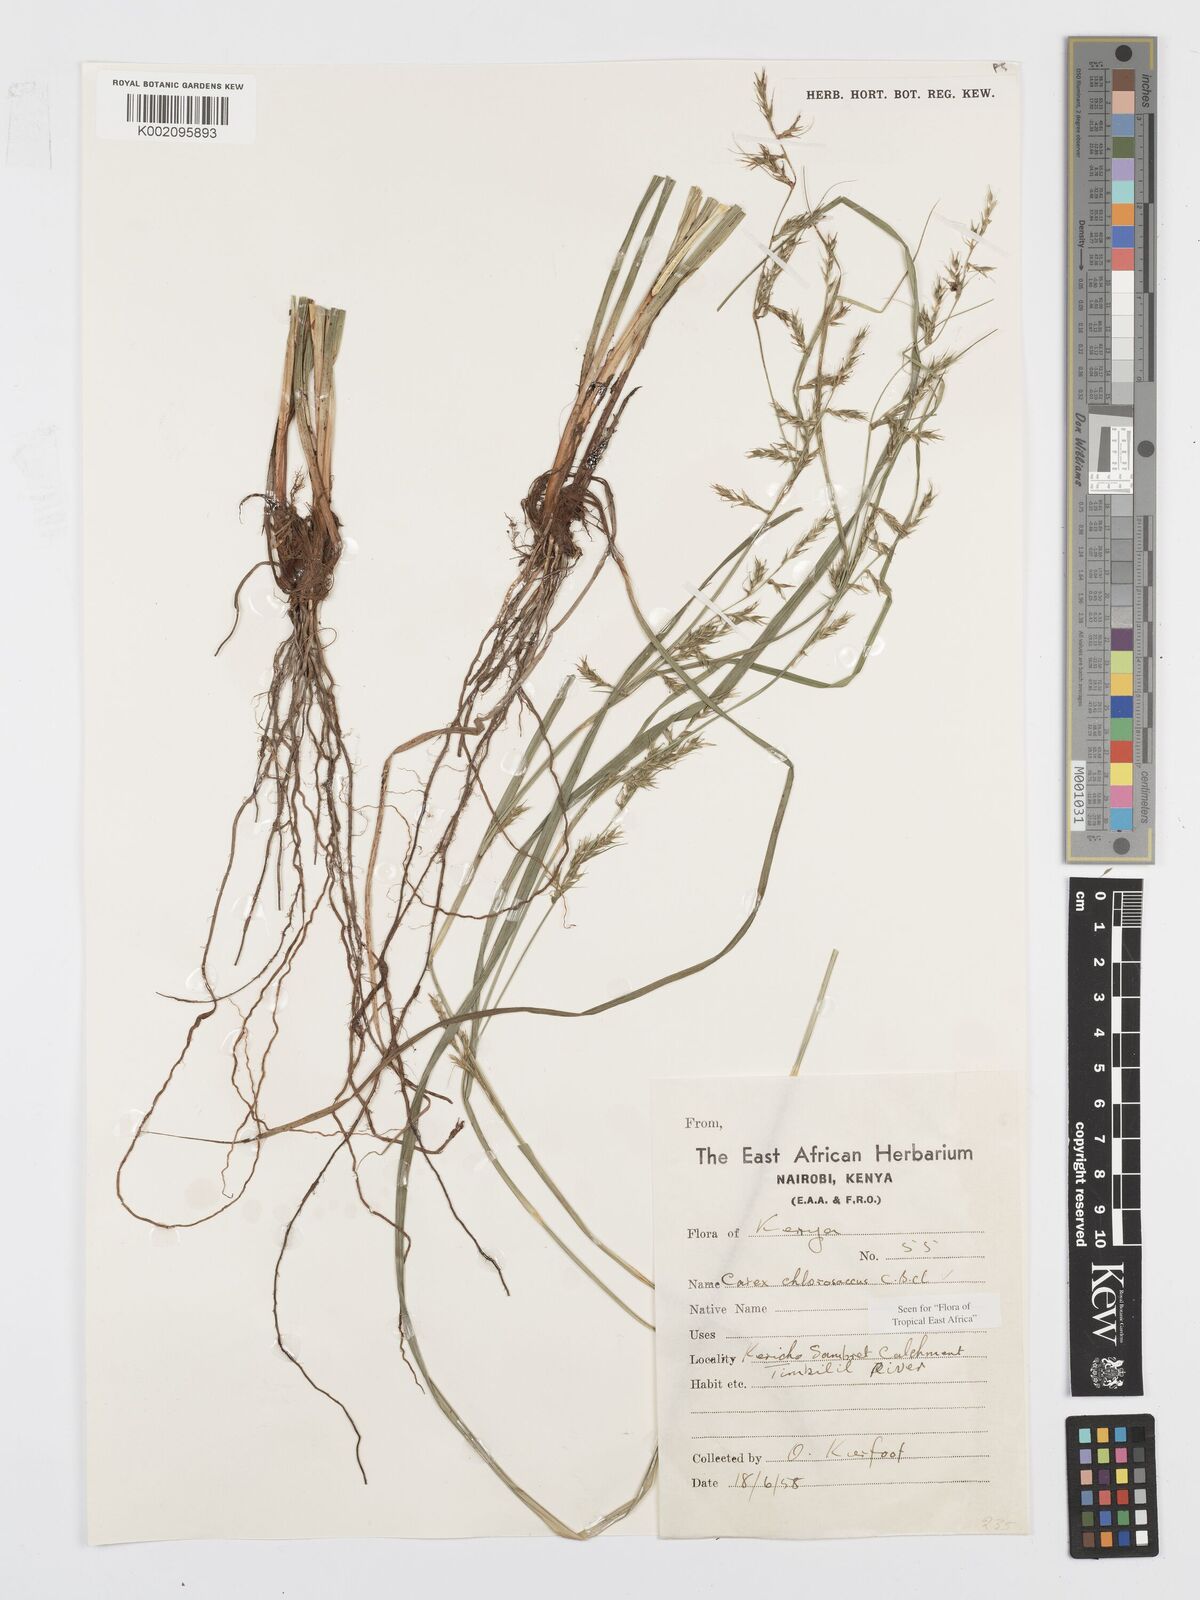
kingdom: Plantae
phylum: Tracheophyta
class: Liliopsida
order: Poales
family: Cyperaceae
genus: Carex
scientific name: Carex chlorosaccus
